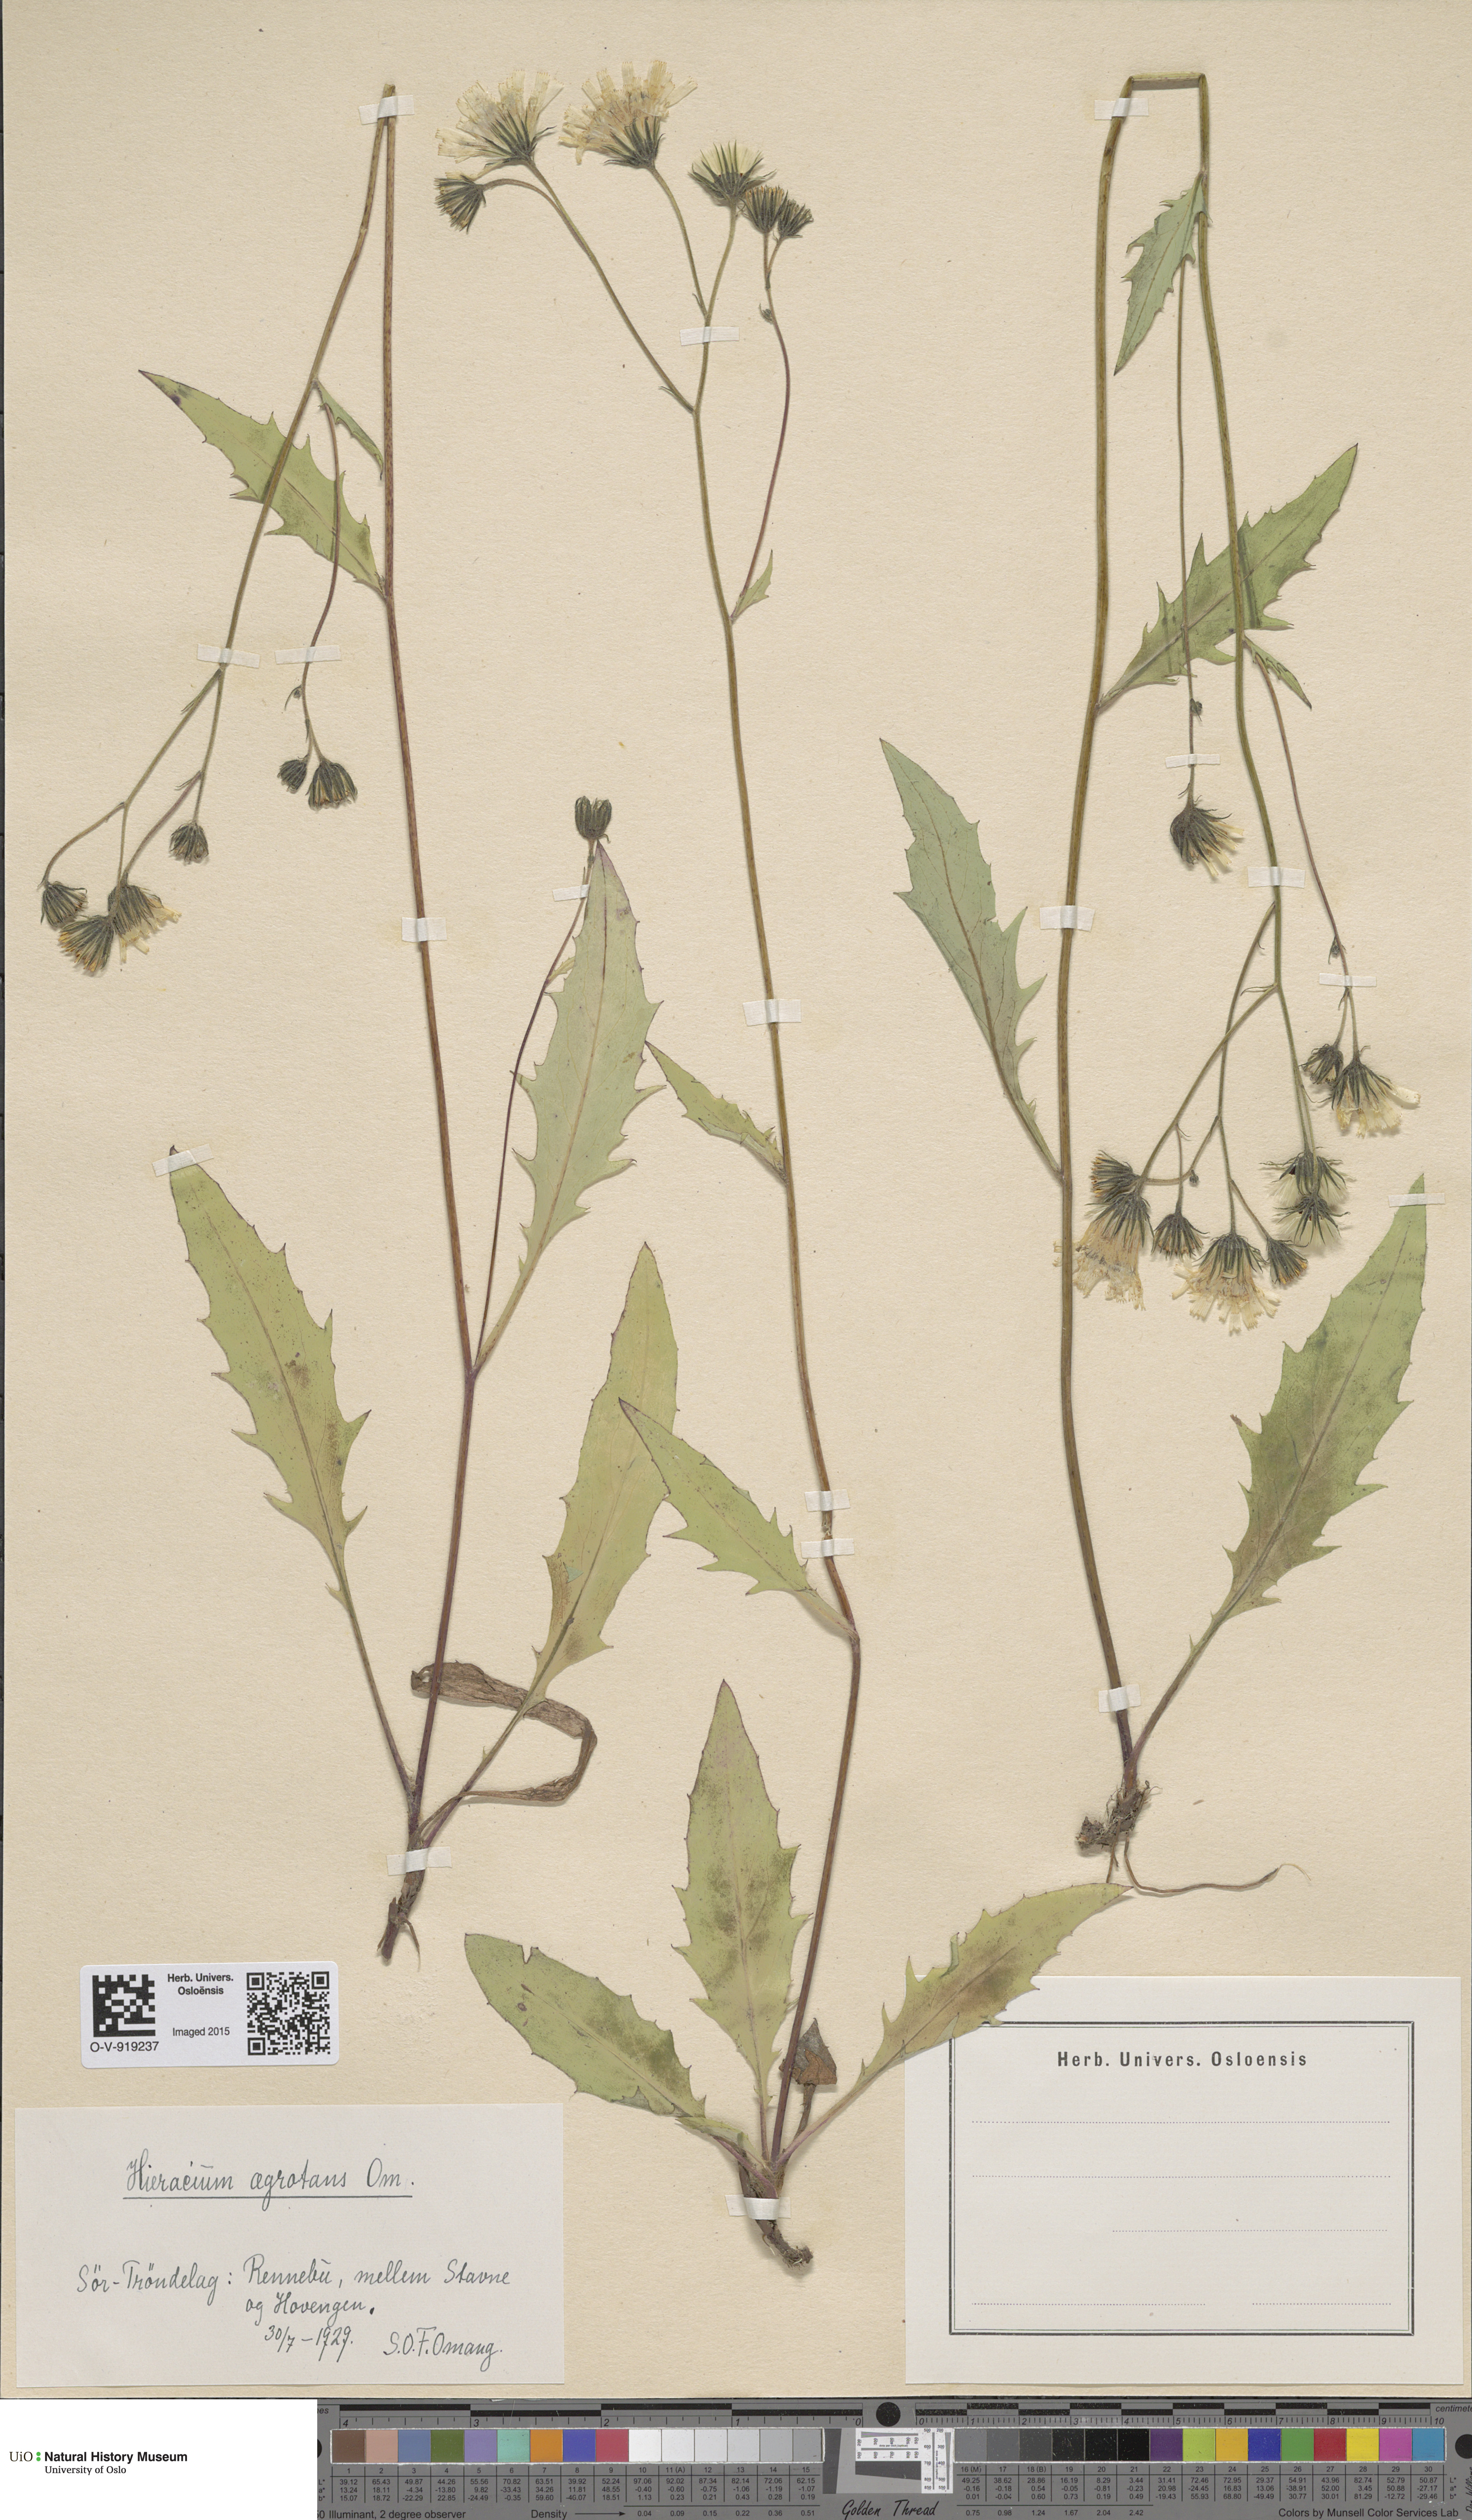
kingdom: Plantae
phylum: Tracheophyta
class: Magnoliopsida
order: Asterales
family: Asteraceae
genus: Hieracium
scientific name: Hieracium
